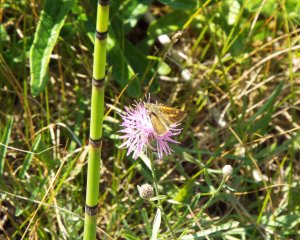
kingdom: Animalia
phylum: Arthropoda
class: Insecta
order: Lepidoptera
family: Hesperiidae
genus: Polites
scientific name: Polites themistocles
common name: Tawny-edged Skipper
